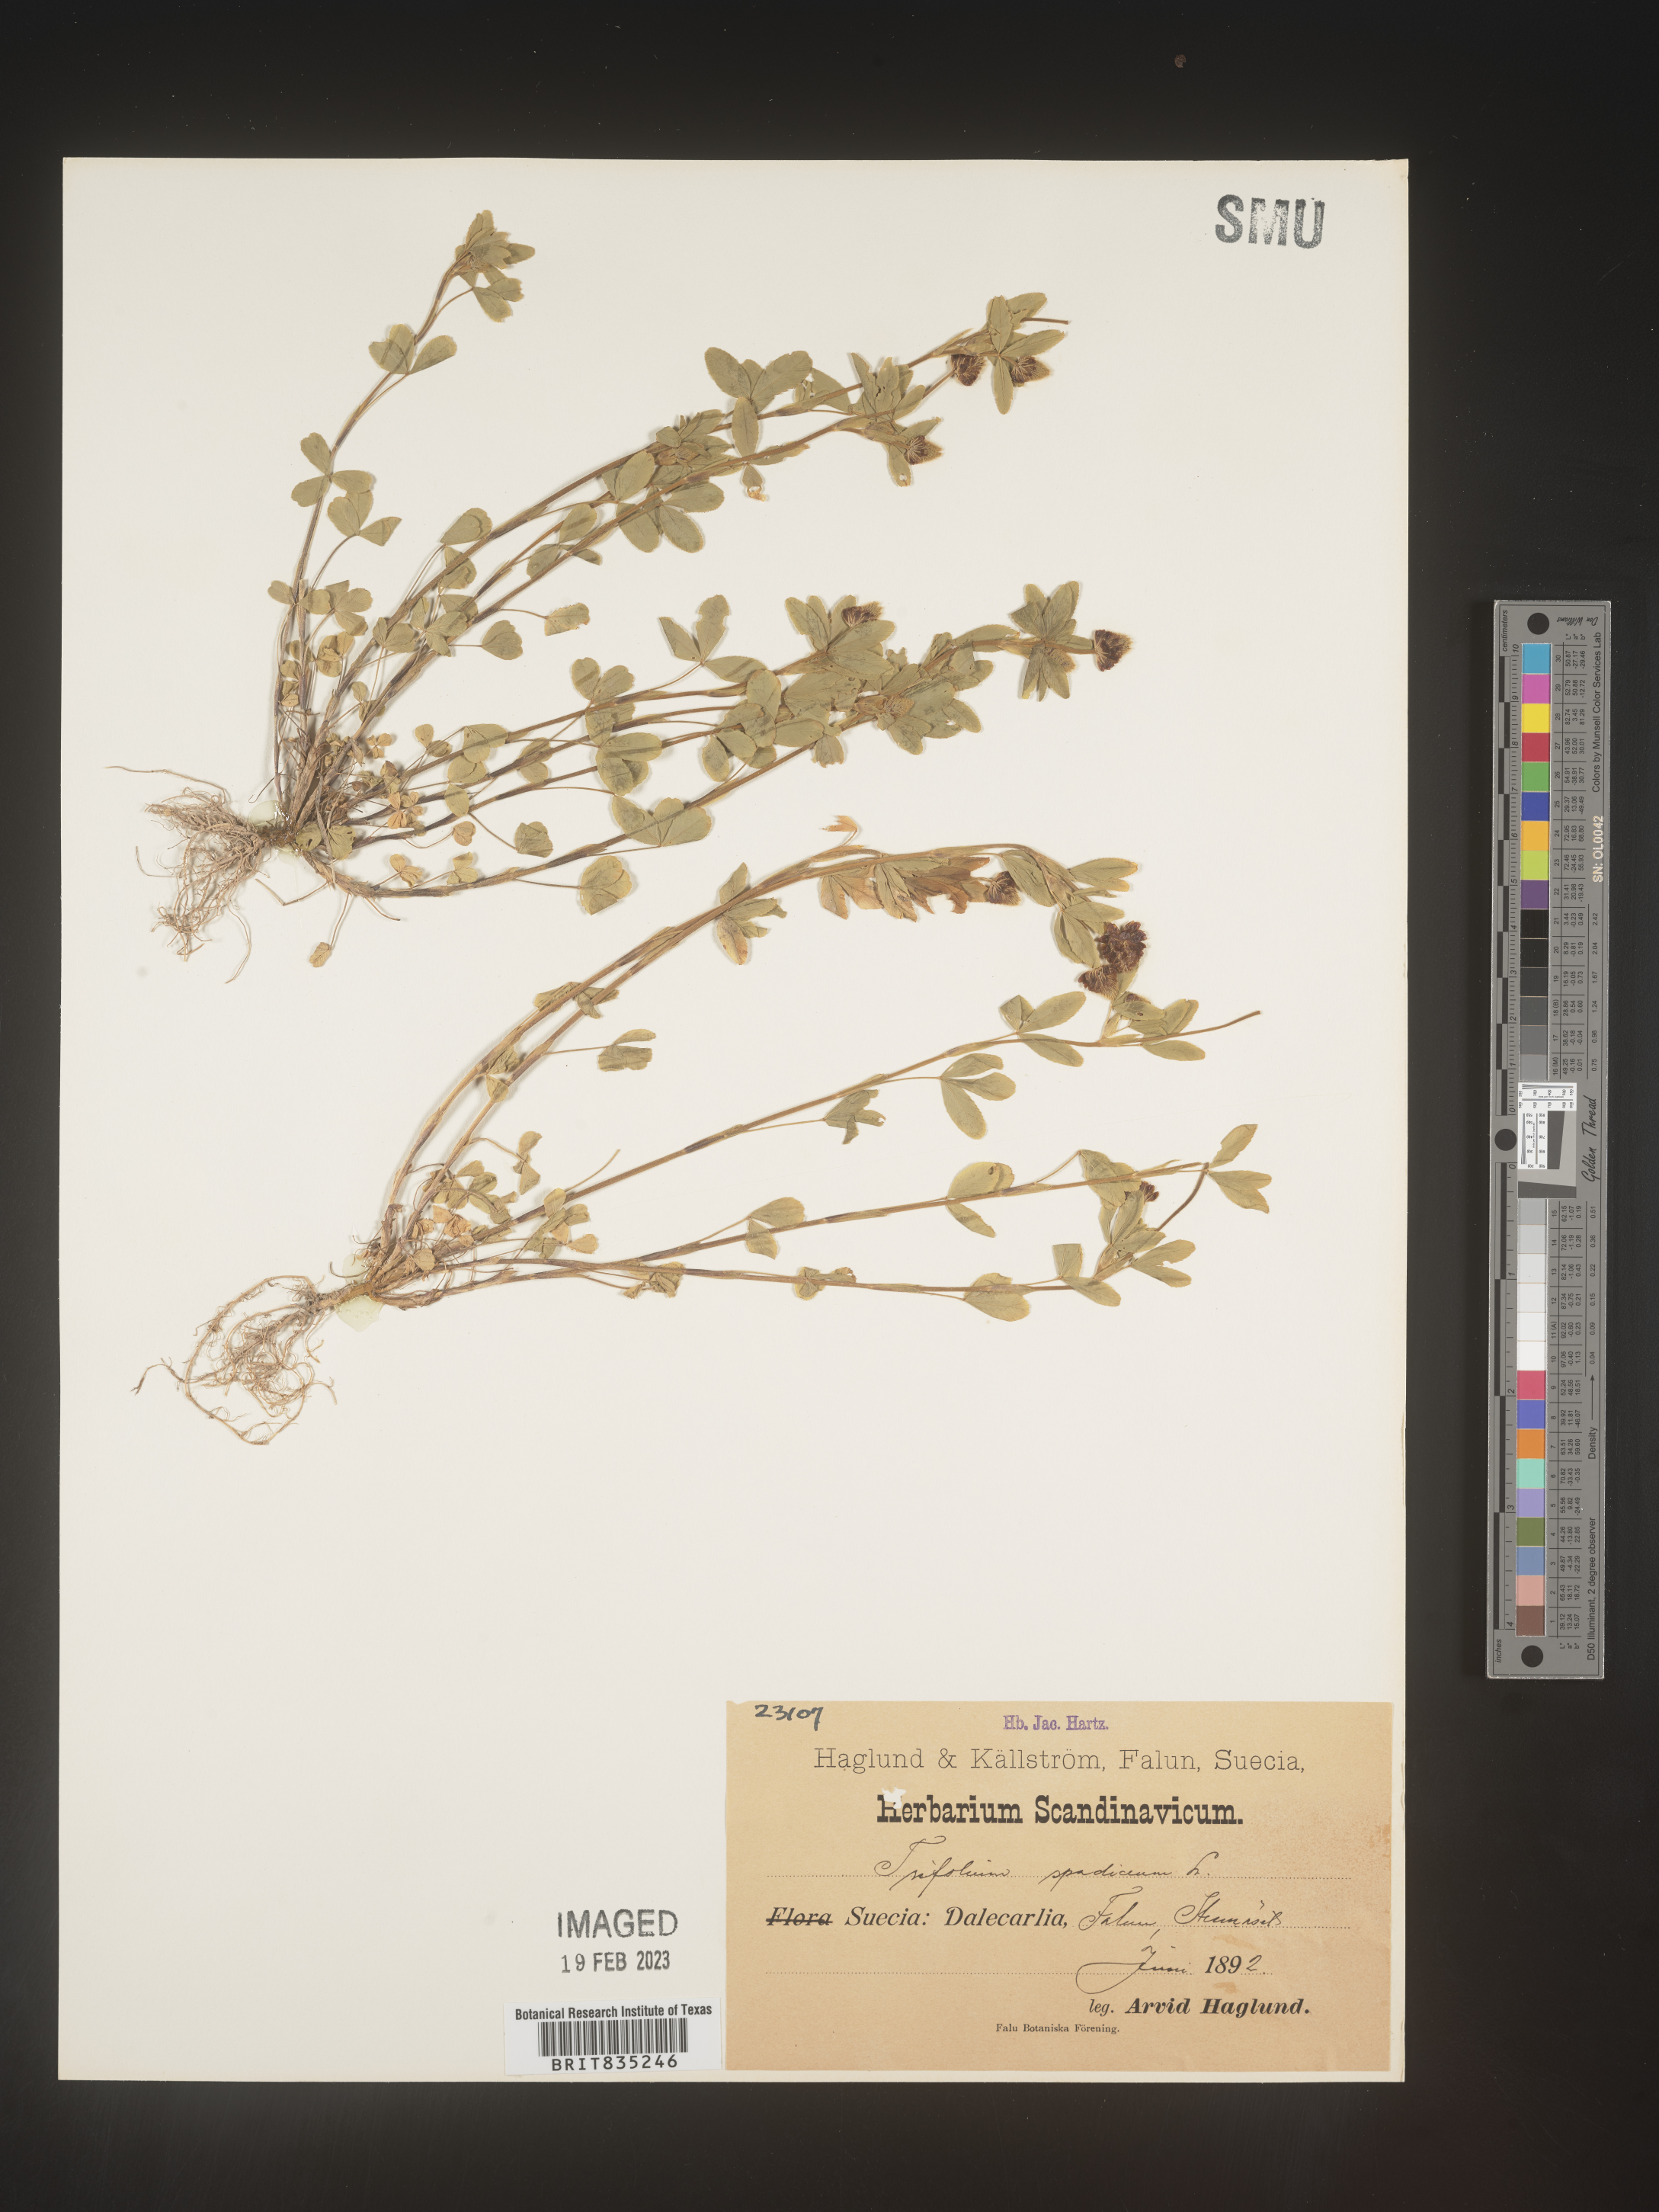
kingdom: Plantae
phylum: Tracheophyta
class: Magnoliopsida
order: Fabales
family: Fabaceae
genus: Trifolium
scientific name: Trifolium
